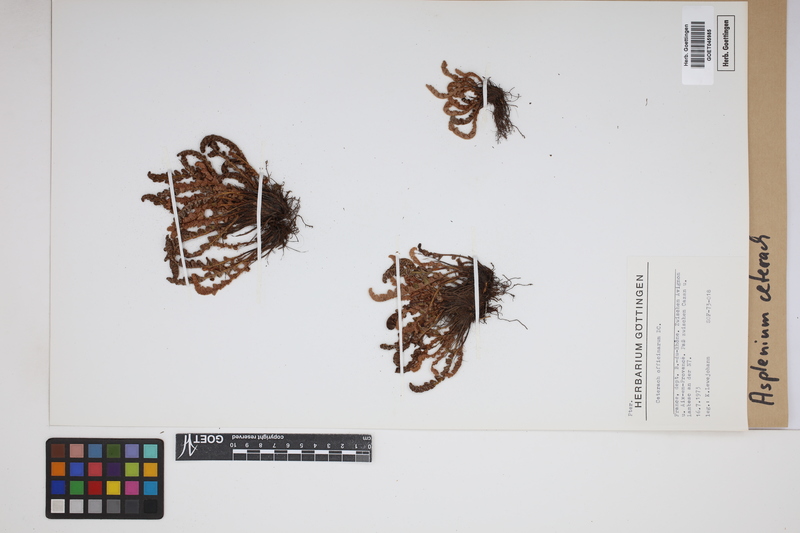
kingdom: Plantae
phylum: Tracheophyta
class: Polypodiopsida
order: Polypodiales
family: Aspleniaceae
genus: Asplenium
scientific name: Asplenium ceterach
